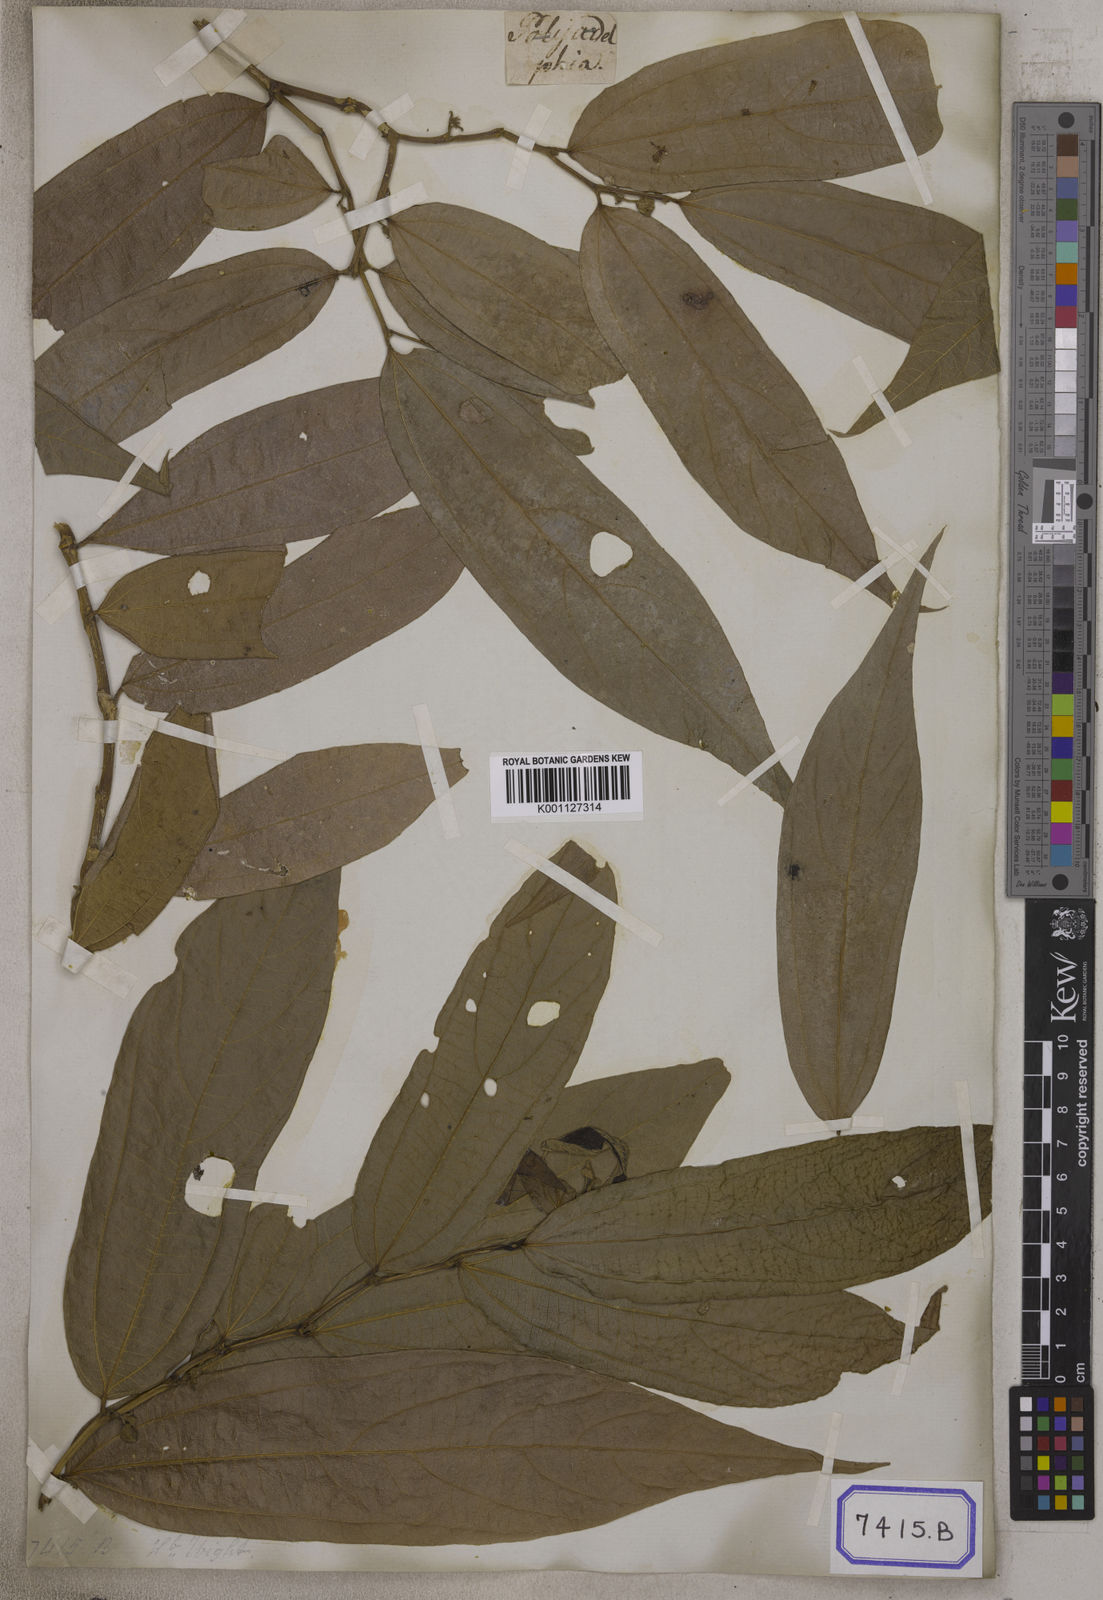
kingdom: Plantae
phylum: Tracheophyta
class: Magnoliopsida
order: Caryophyllales
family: Amaranthaceae
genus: Gomphrena
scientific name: Gomphrena
